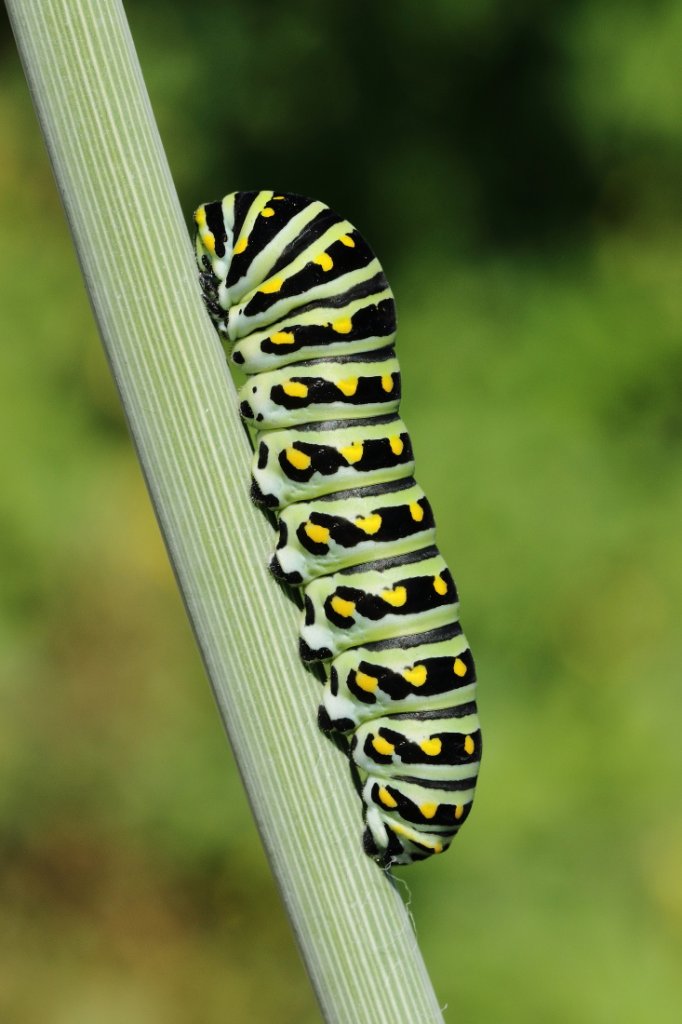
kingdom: Animalia
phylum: Arthropoda
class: Insecta
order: Lepidoptera
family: Papilionidae
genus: Papilio
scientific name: Papilio polyxenes
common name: Black Swallowtail
